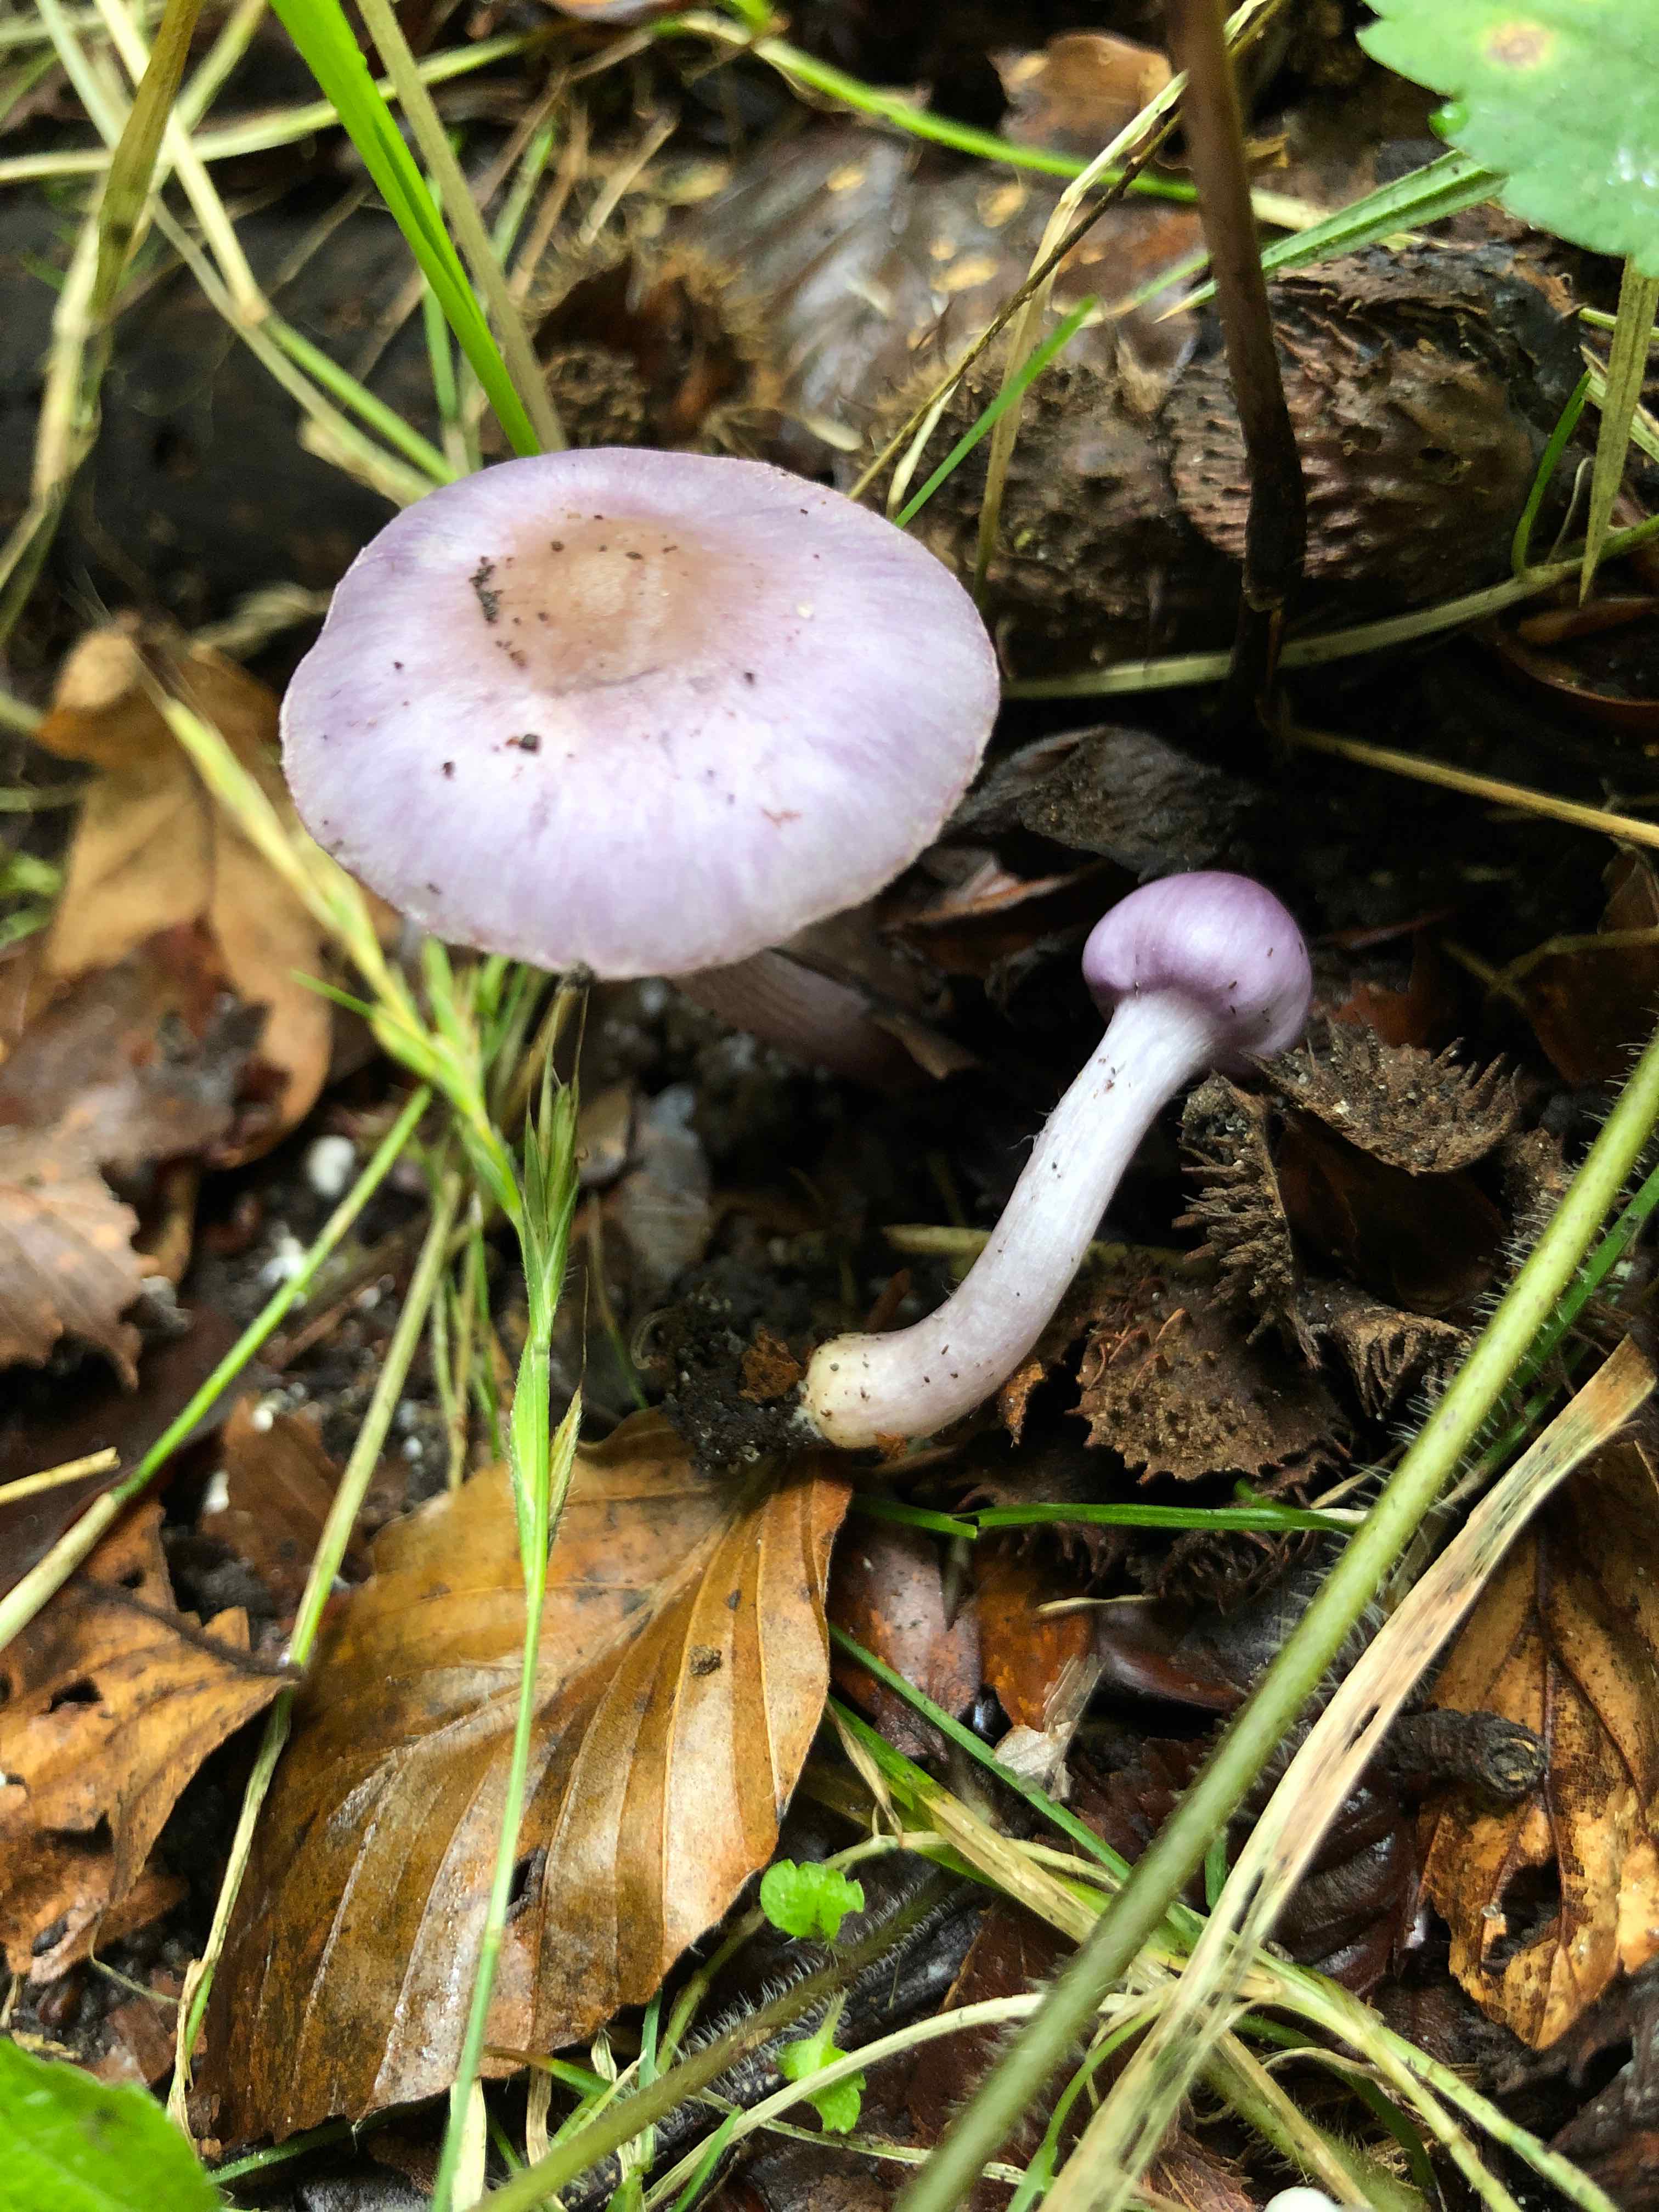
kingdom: Fungi
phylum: Basidiomycota
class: Agaricomycetes
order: Agaricales
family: Inocybaceae
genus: Inocybe
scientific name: Inocybe geophylla
